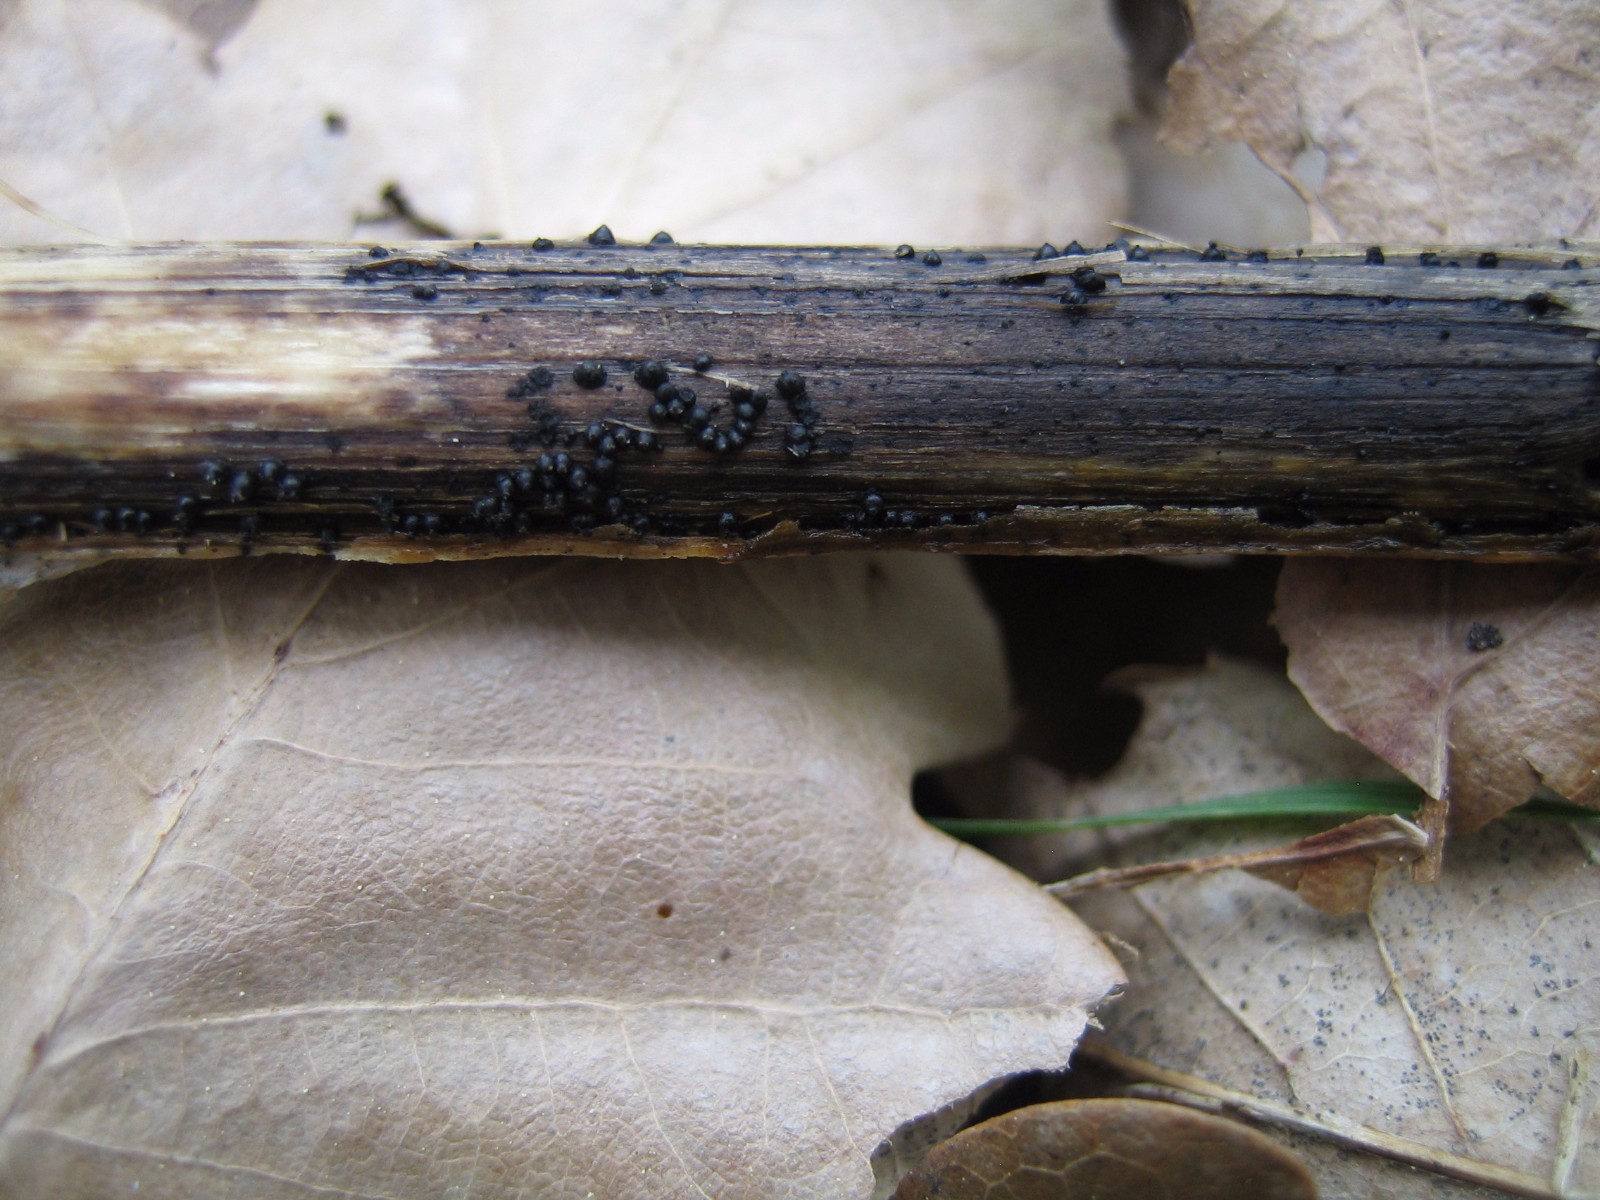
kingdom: Fungi
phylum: Ascomycota
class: Dothideomycetes
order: Pleosporales
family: Leptosphaeriaceae
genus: Leptosphaeria
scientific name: Leptosphaeria
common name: kulkegle
